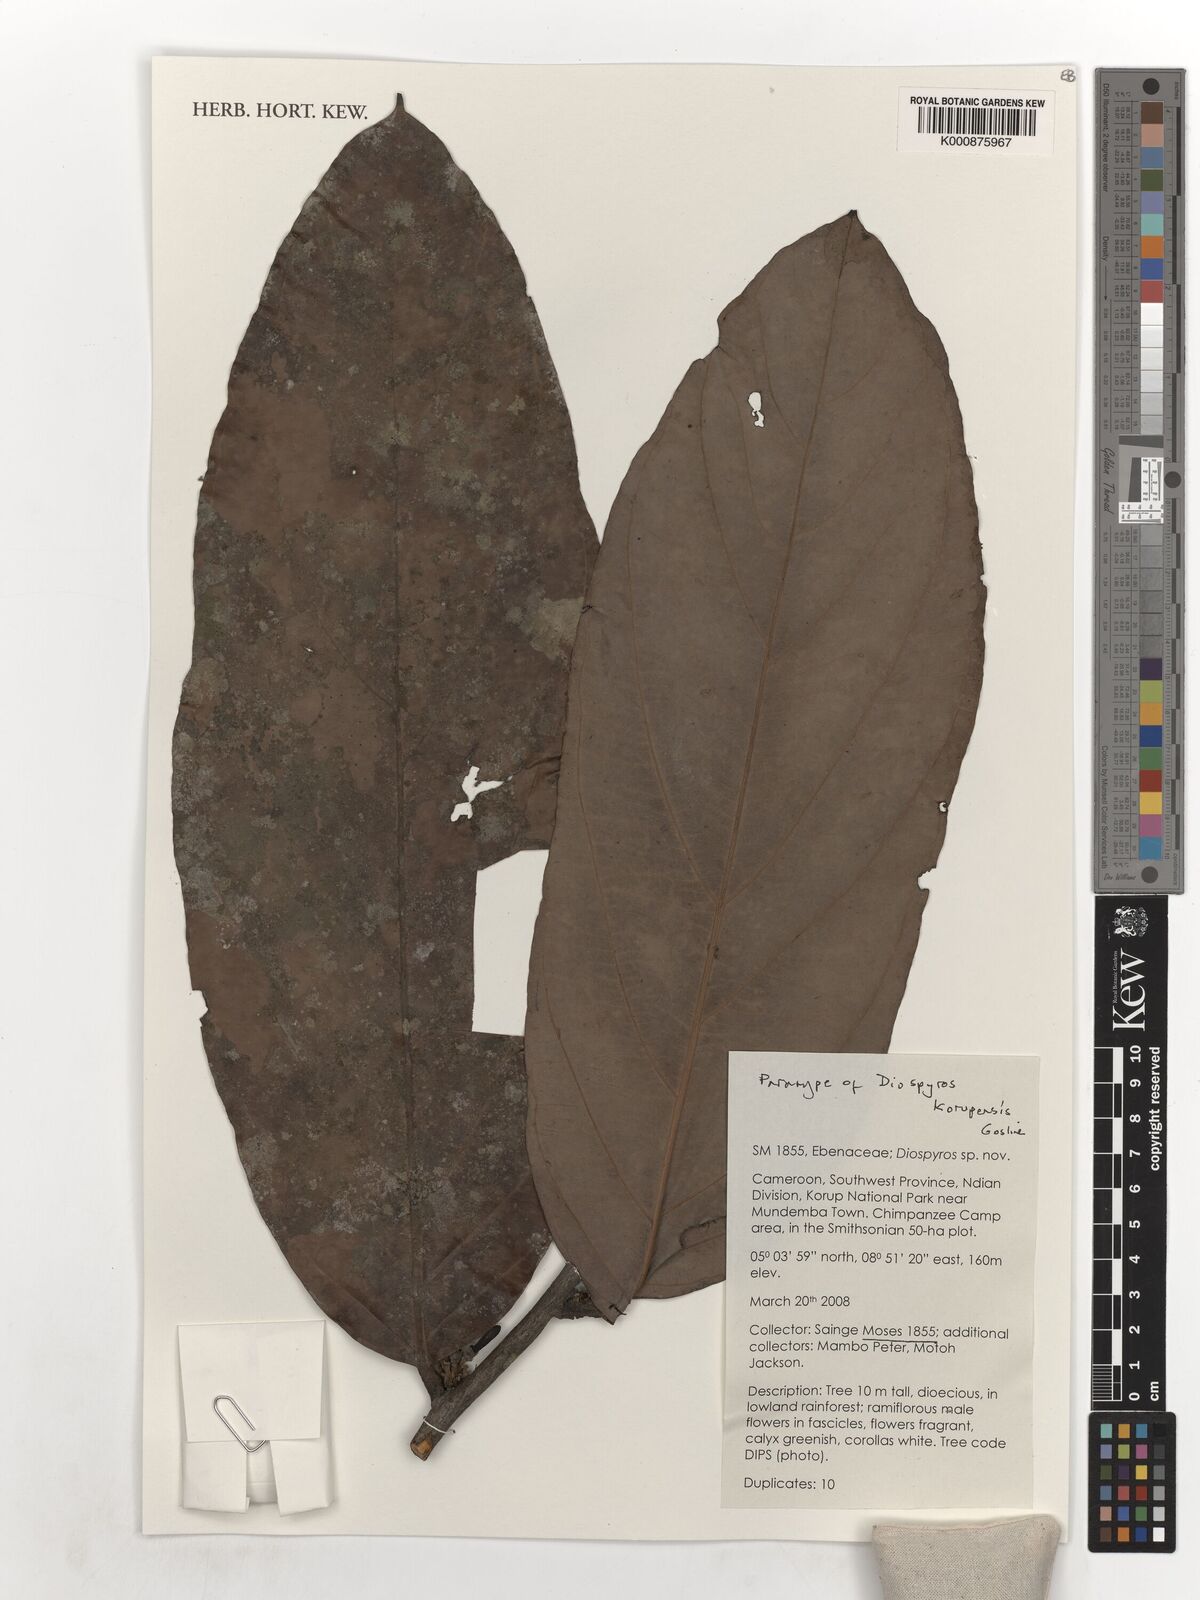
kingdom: Plantae
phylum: Tracheophyta
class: Magnoliopsida
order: Ericales
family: Ebenaceae
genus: Diospyros
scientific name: Diospyros korupensis
